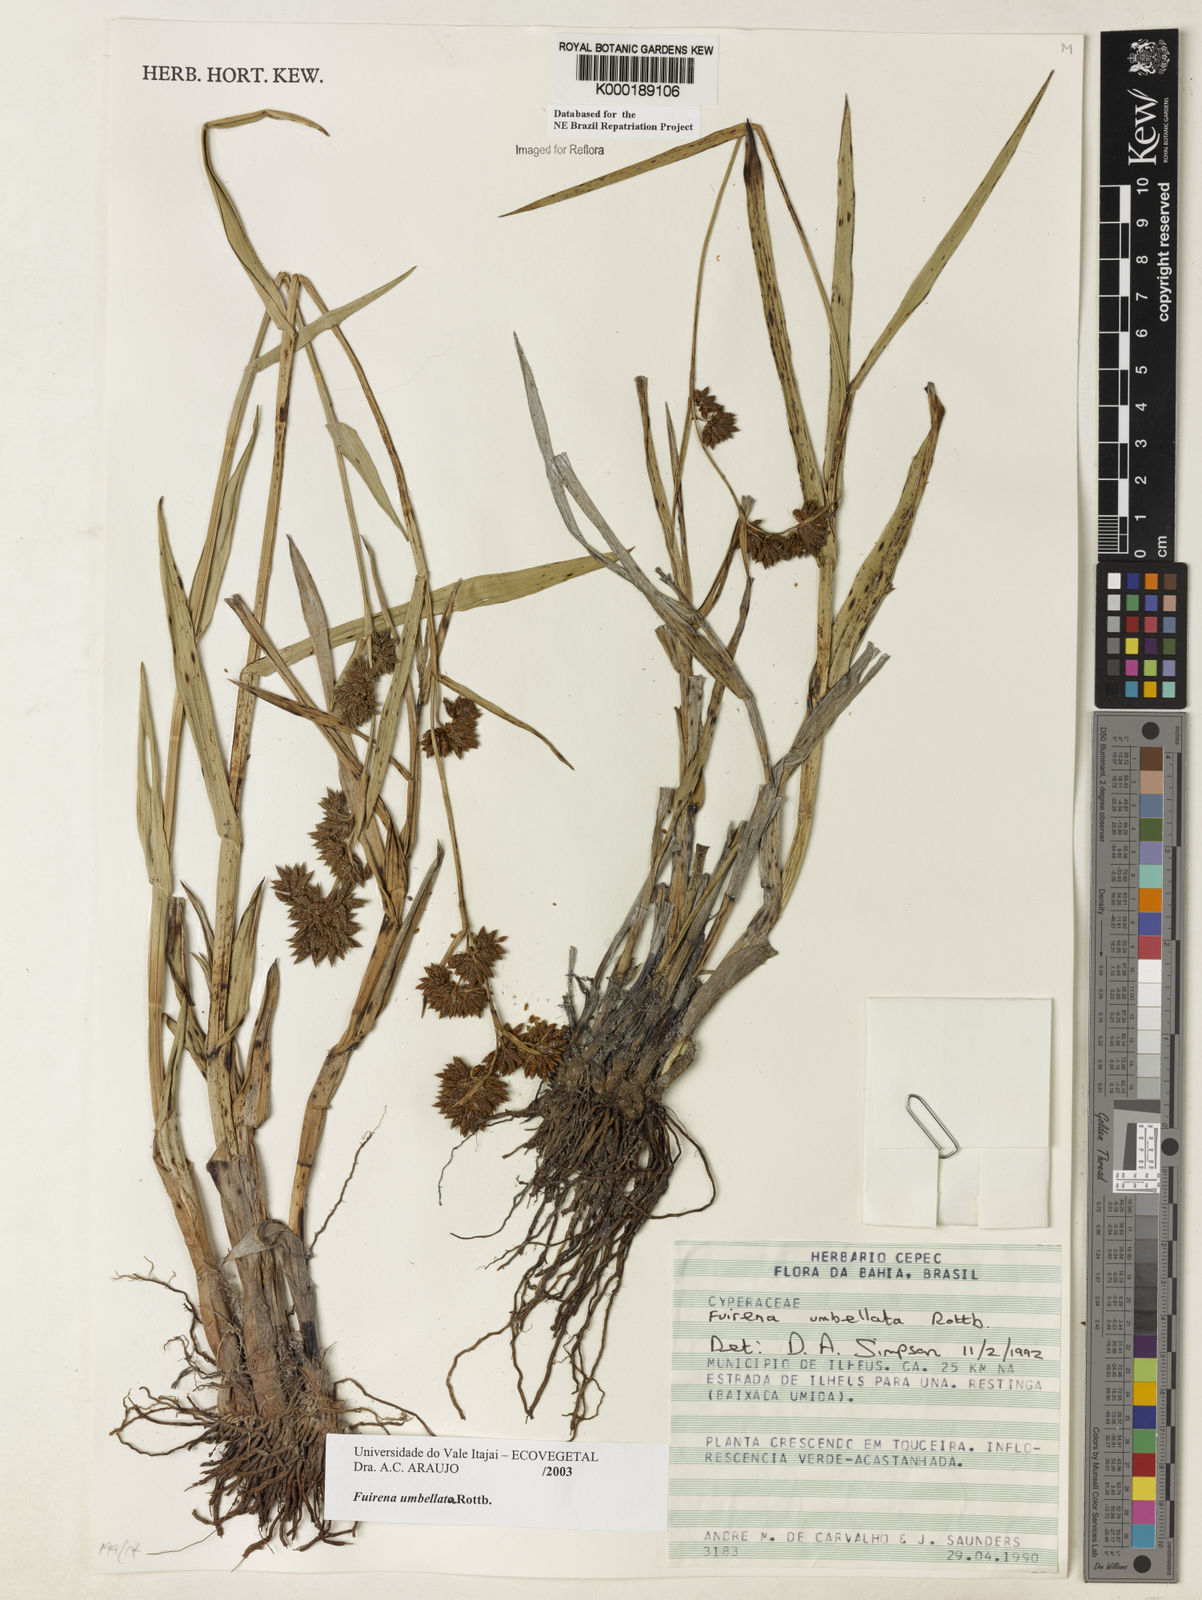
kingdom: Plantae
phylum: Tracheophyta
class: Liliopsida
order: Poales
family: Cyperaceae
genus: Fuirena
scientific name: Fuirena umbellata
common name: Yefen
